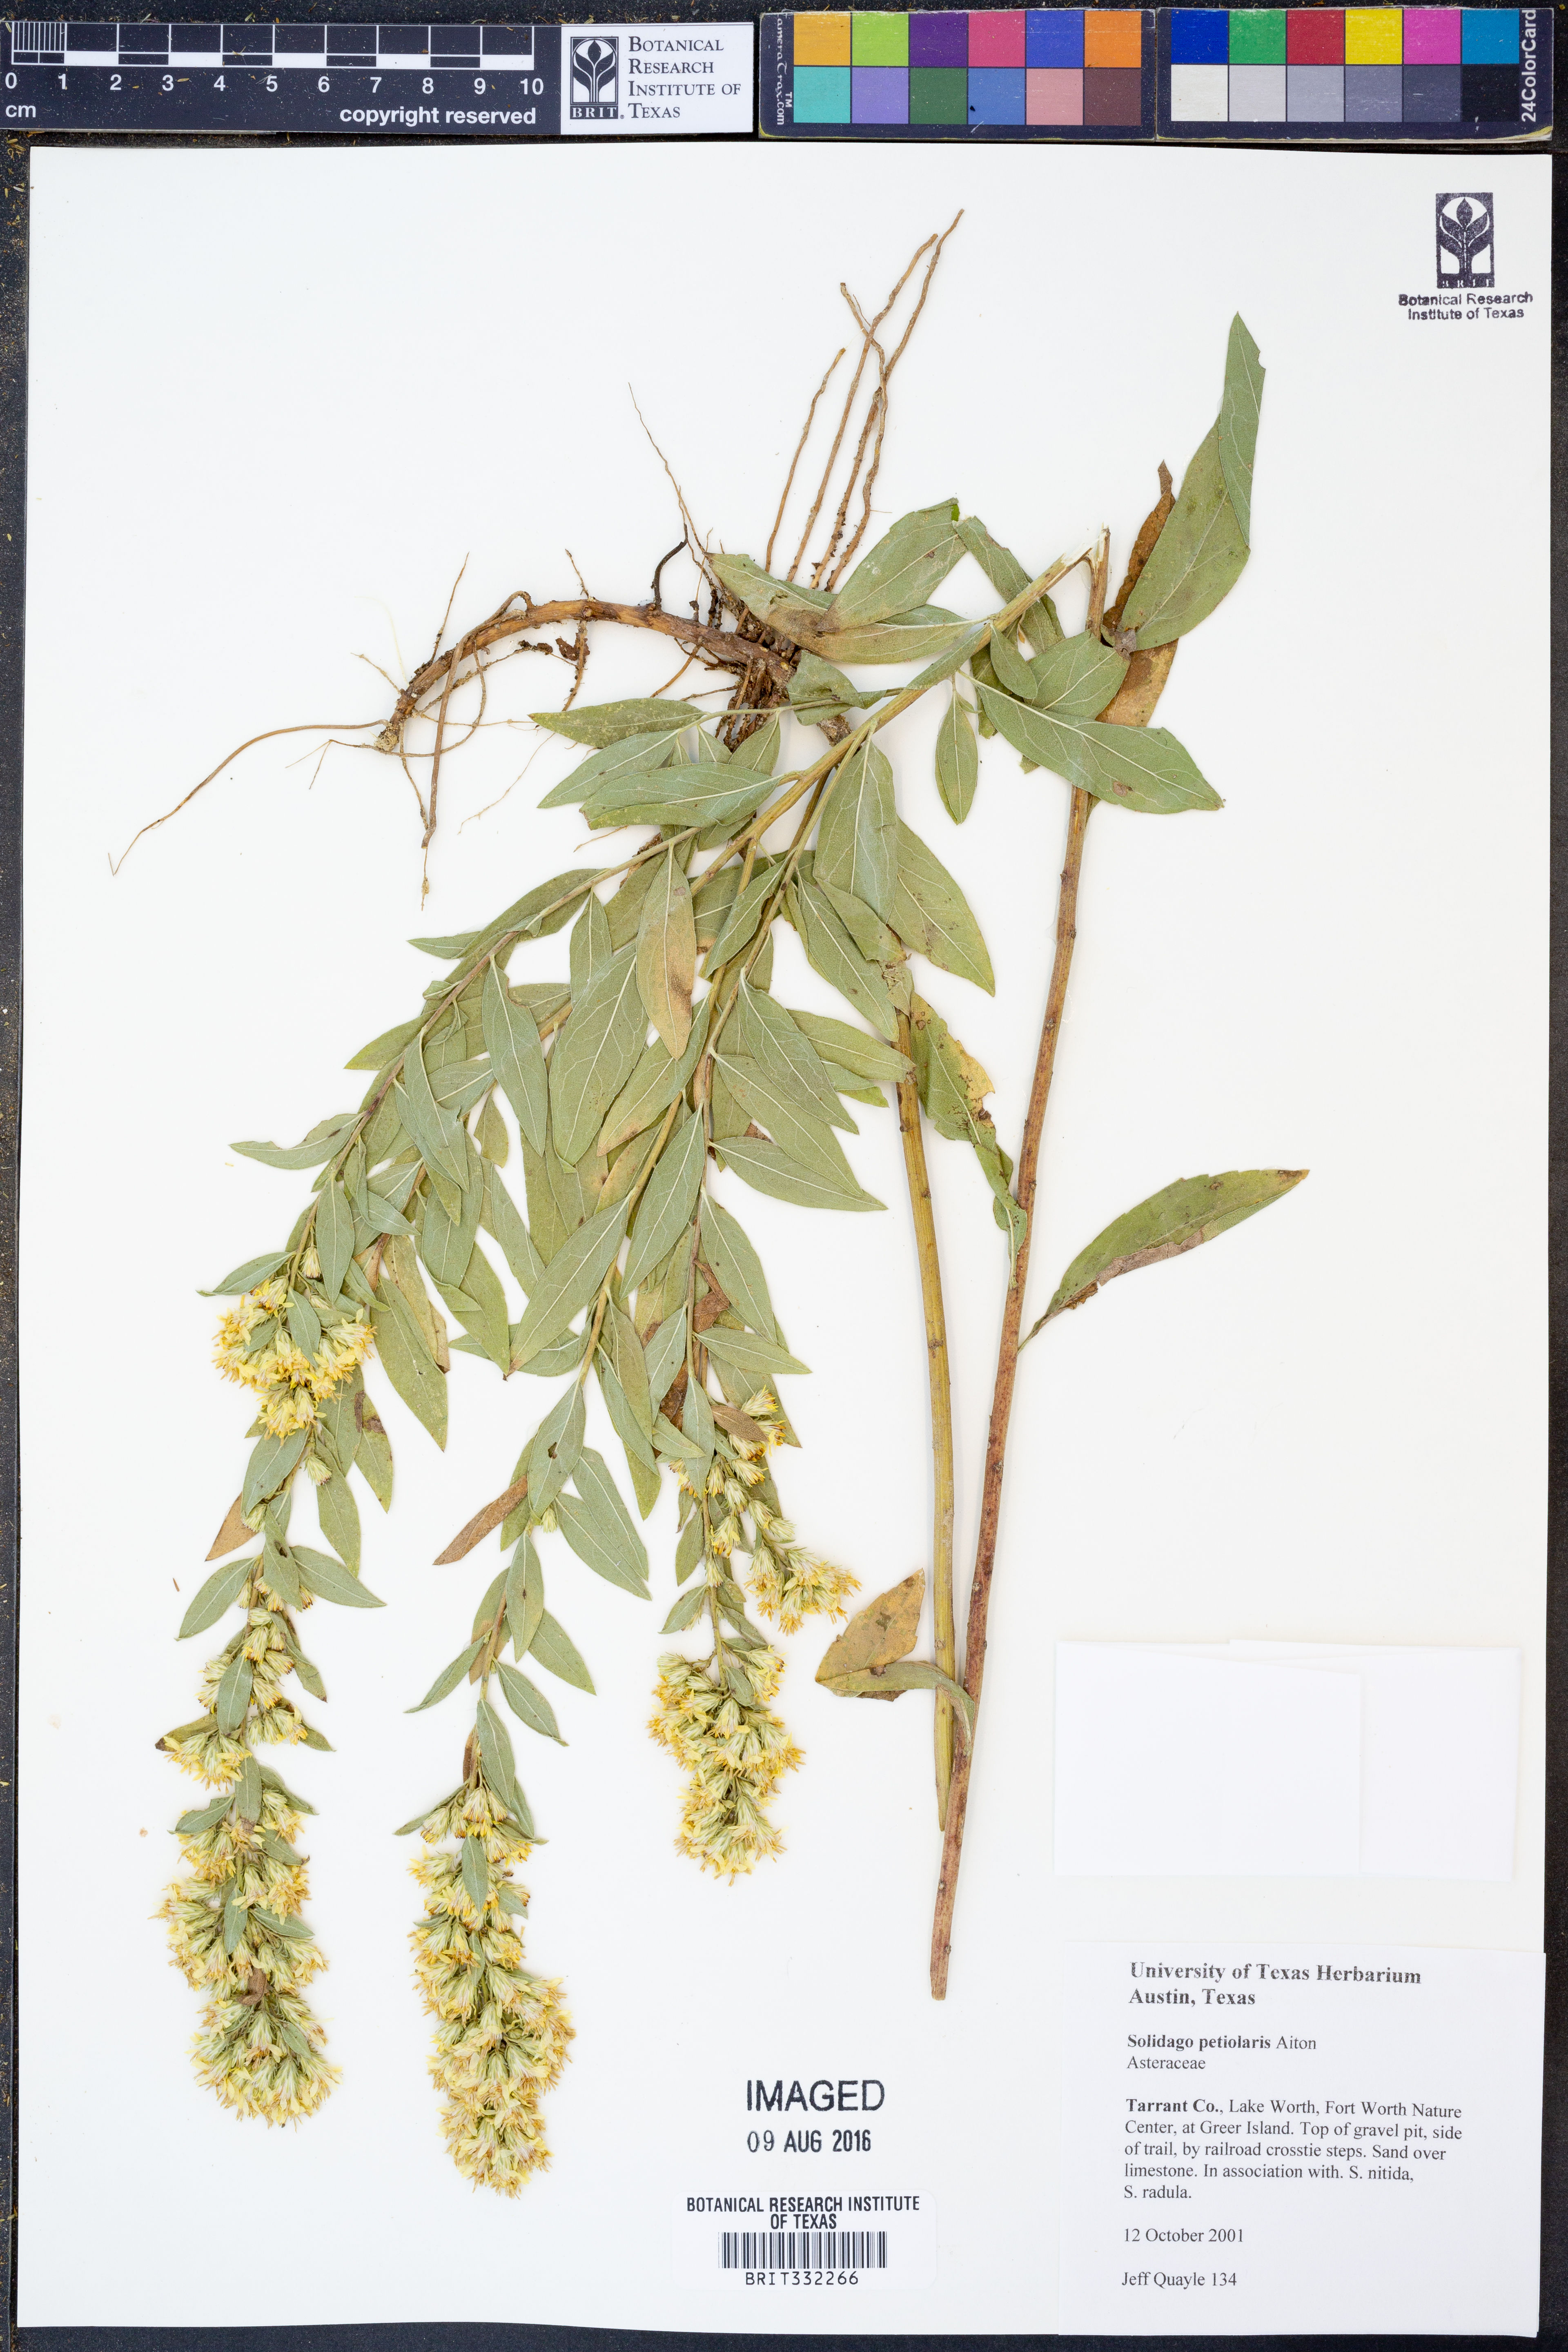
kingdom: Plantae
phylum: Tracheophyta
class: Magnoliopsida
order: Asterales
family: Asteraceae
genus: Solidago
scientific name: Solidago petiolaris
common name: Downy ragged goldenrod
